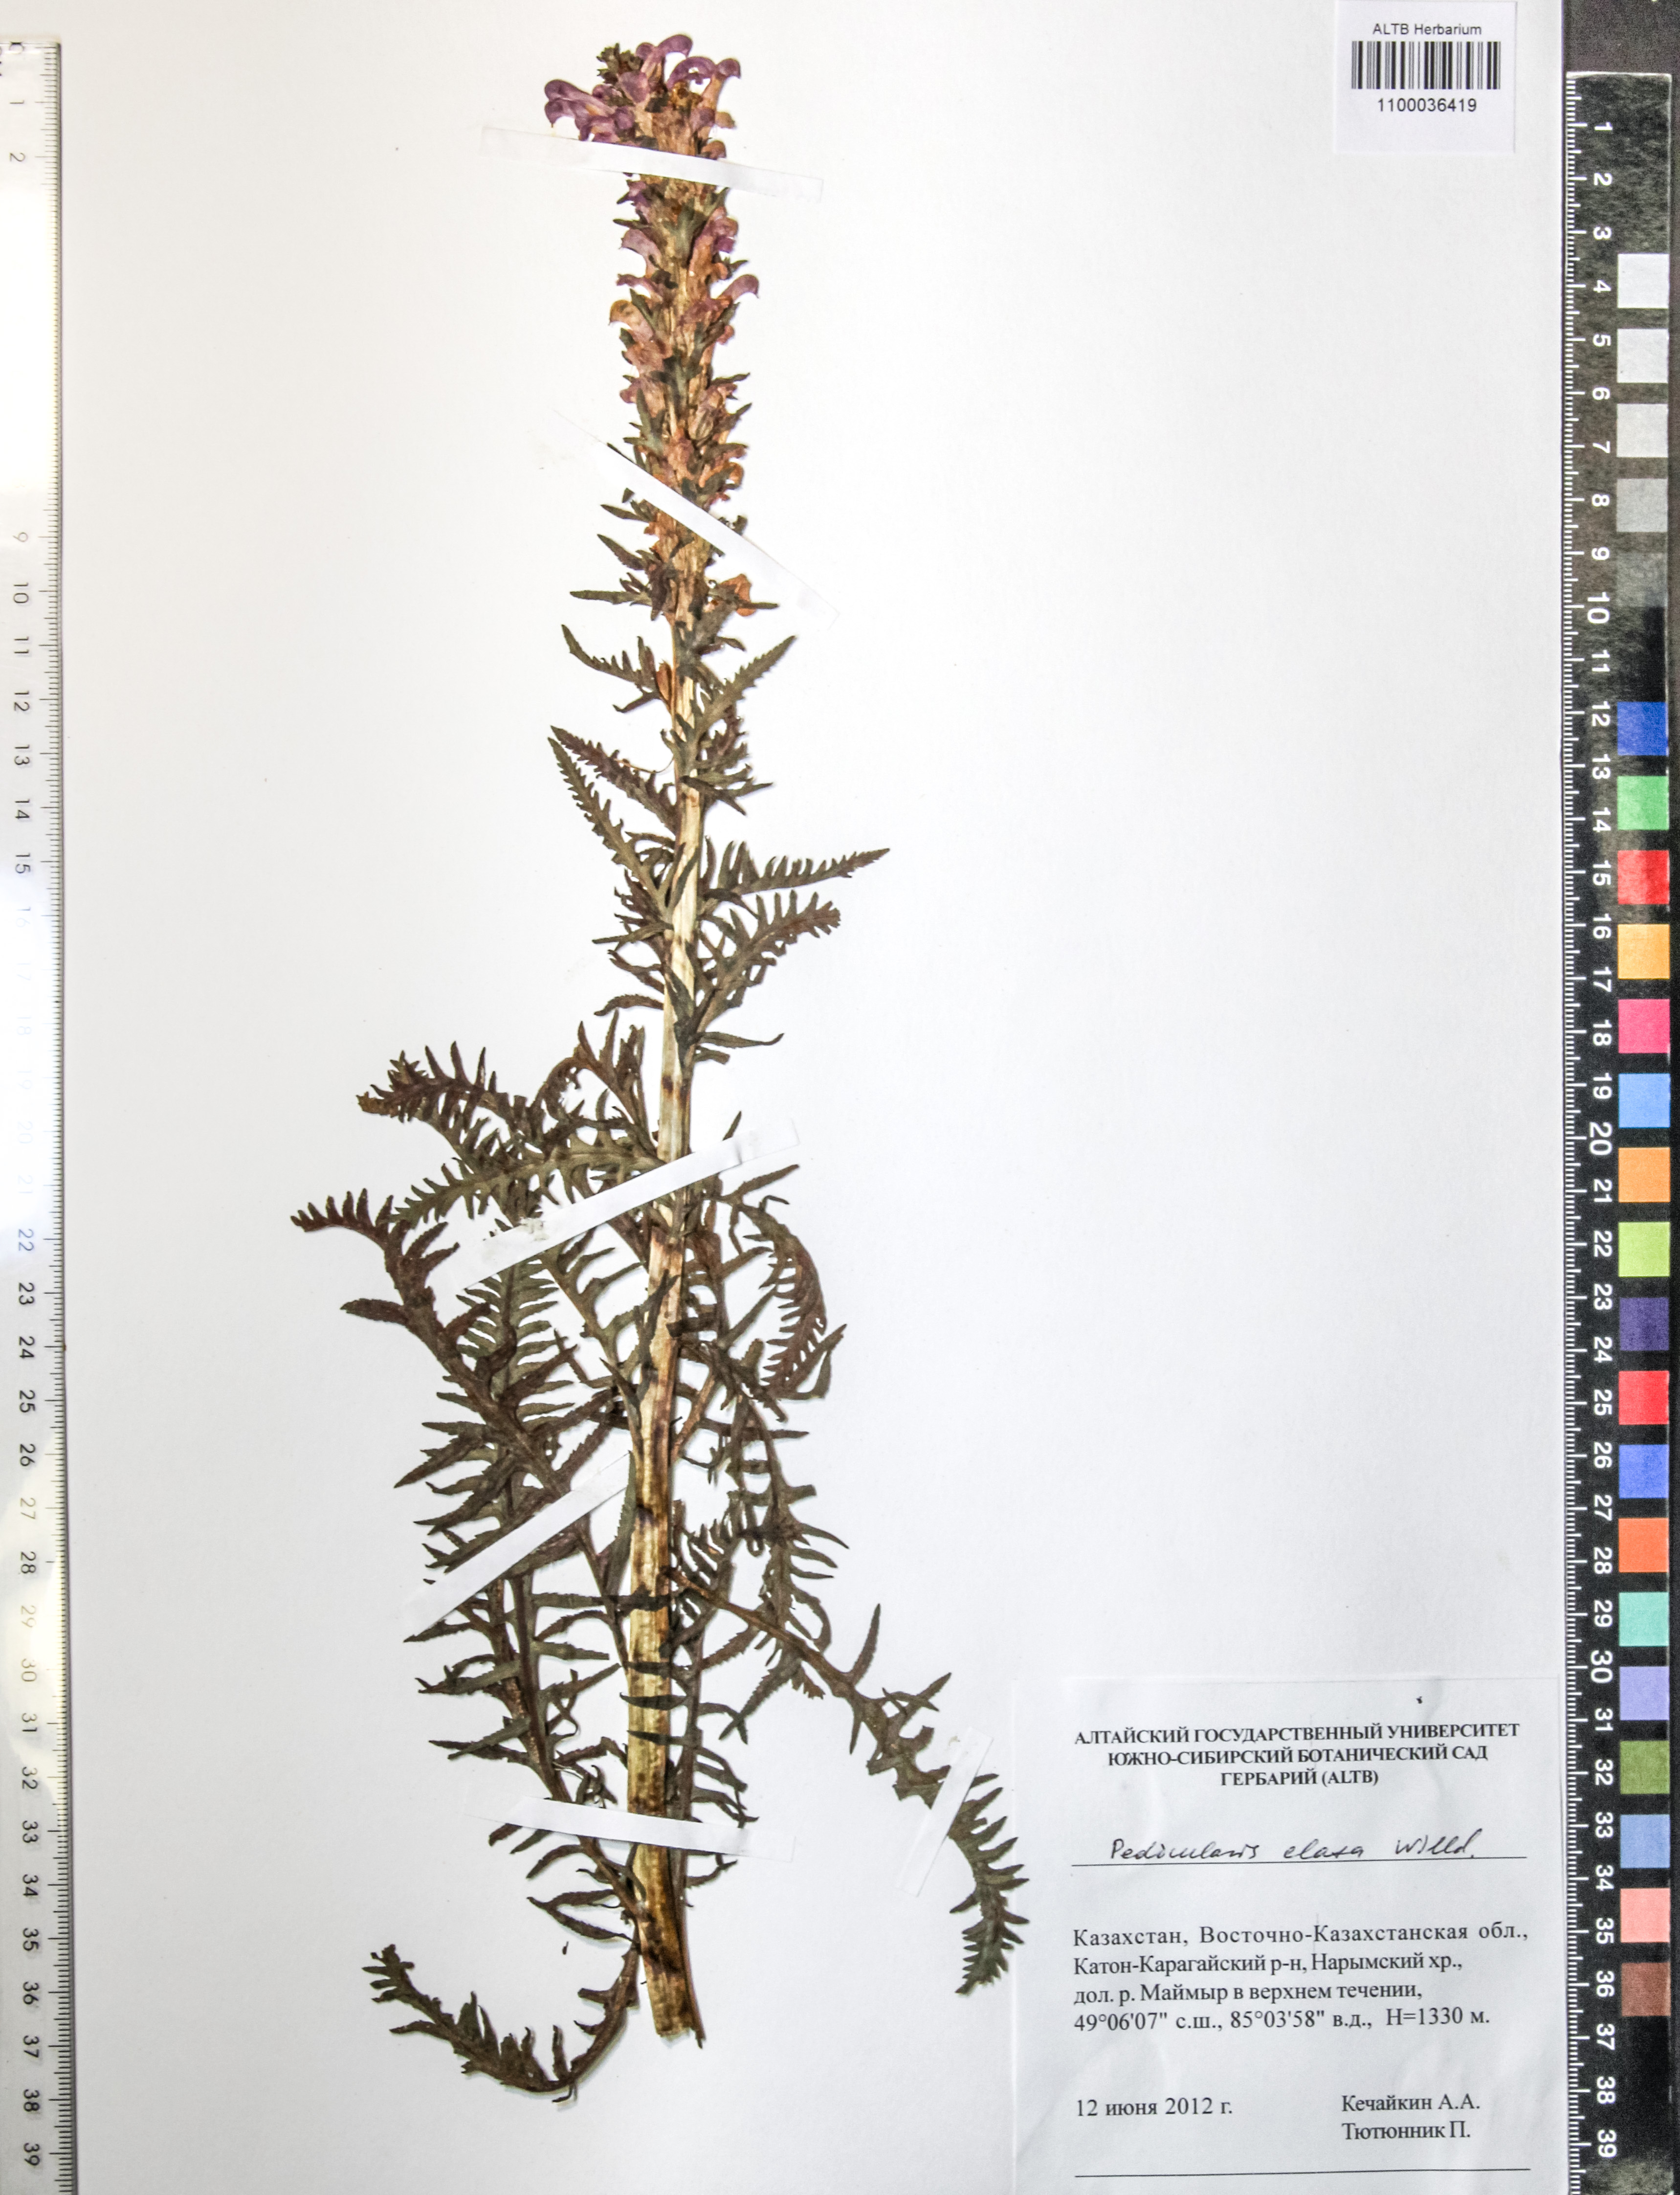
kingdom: Plantae
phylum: Tracheophyta
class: Magnoliopsida
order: Lamiales
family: Orobanchaceae
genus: Pedicularis
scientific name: Pedicularis elata
